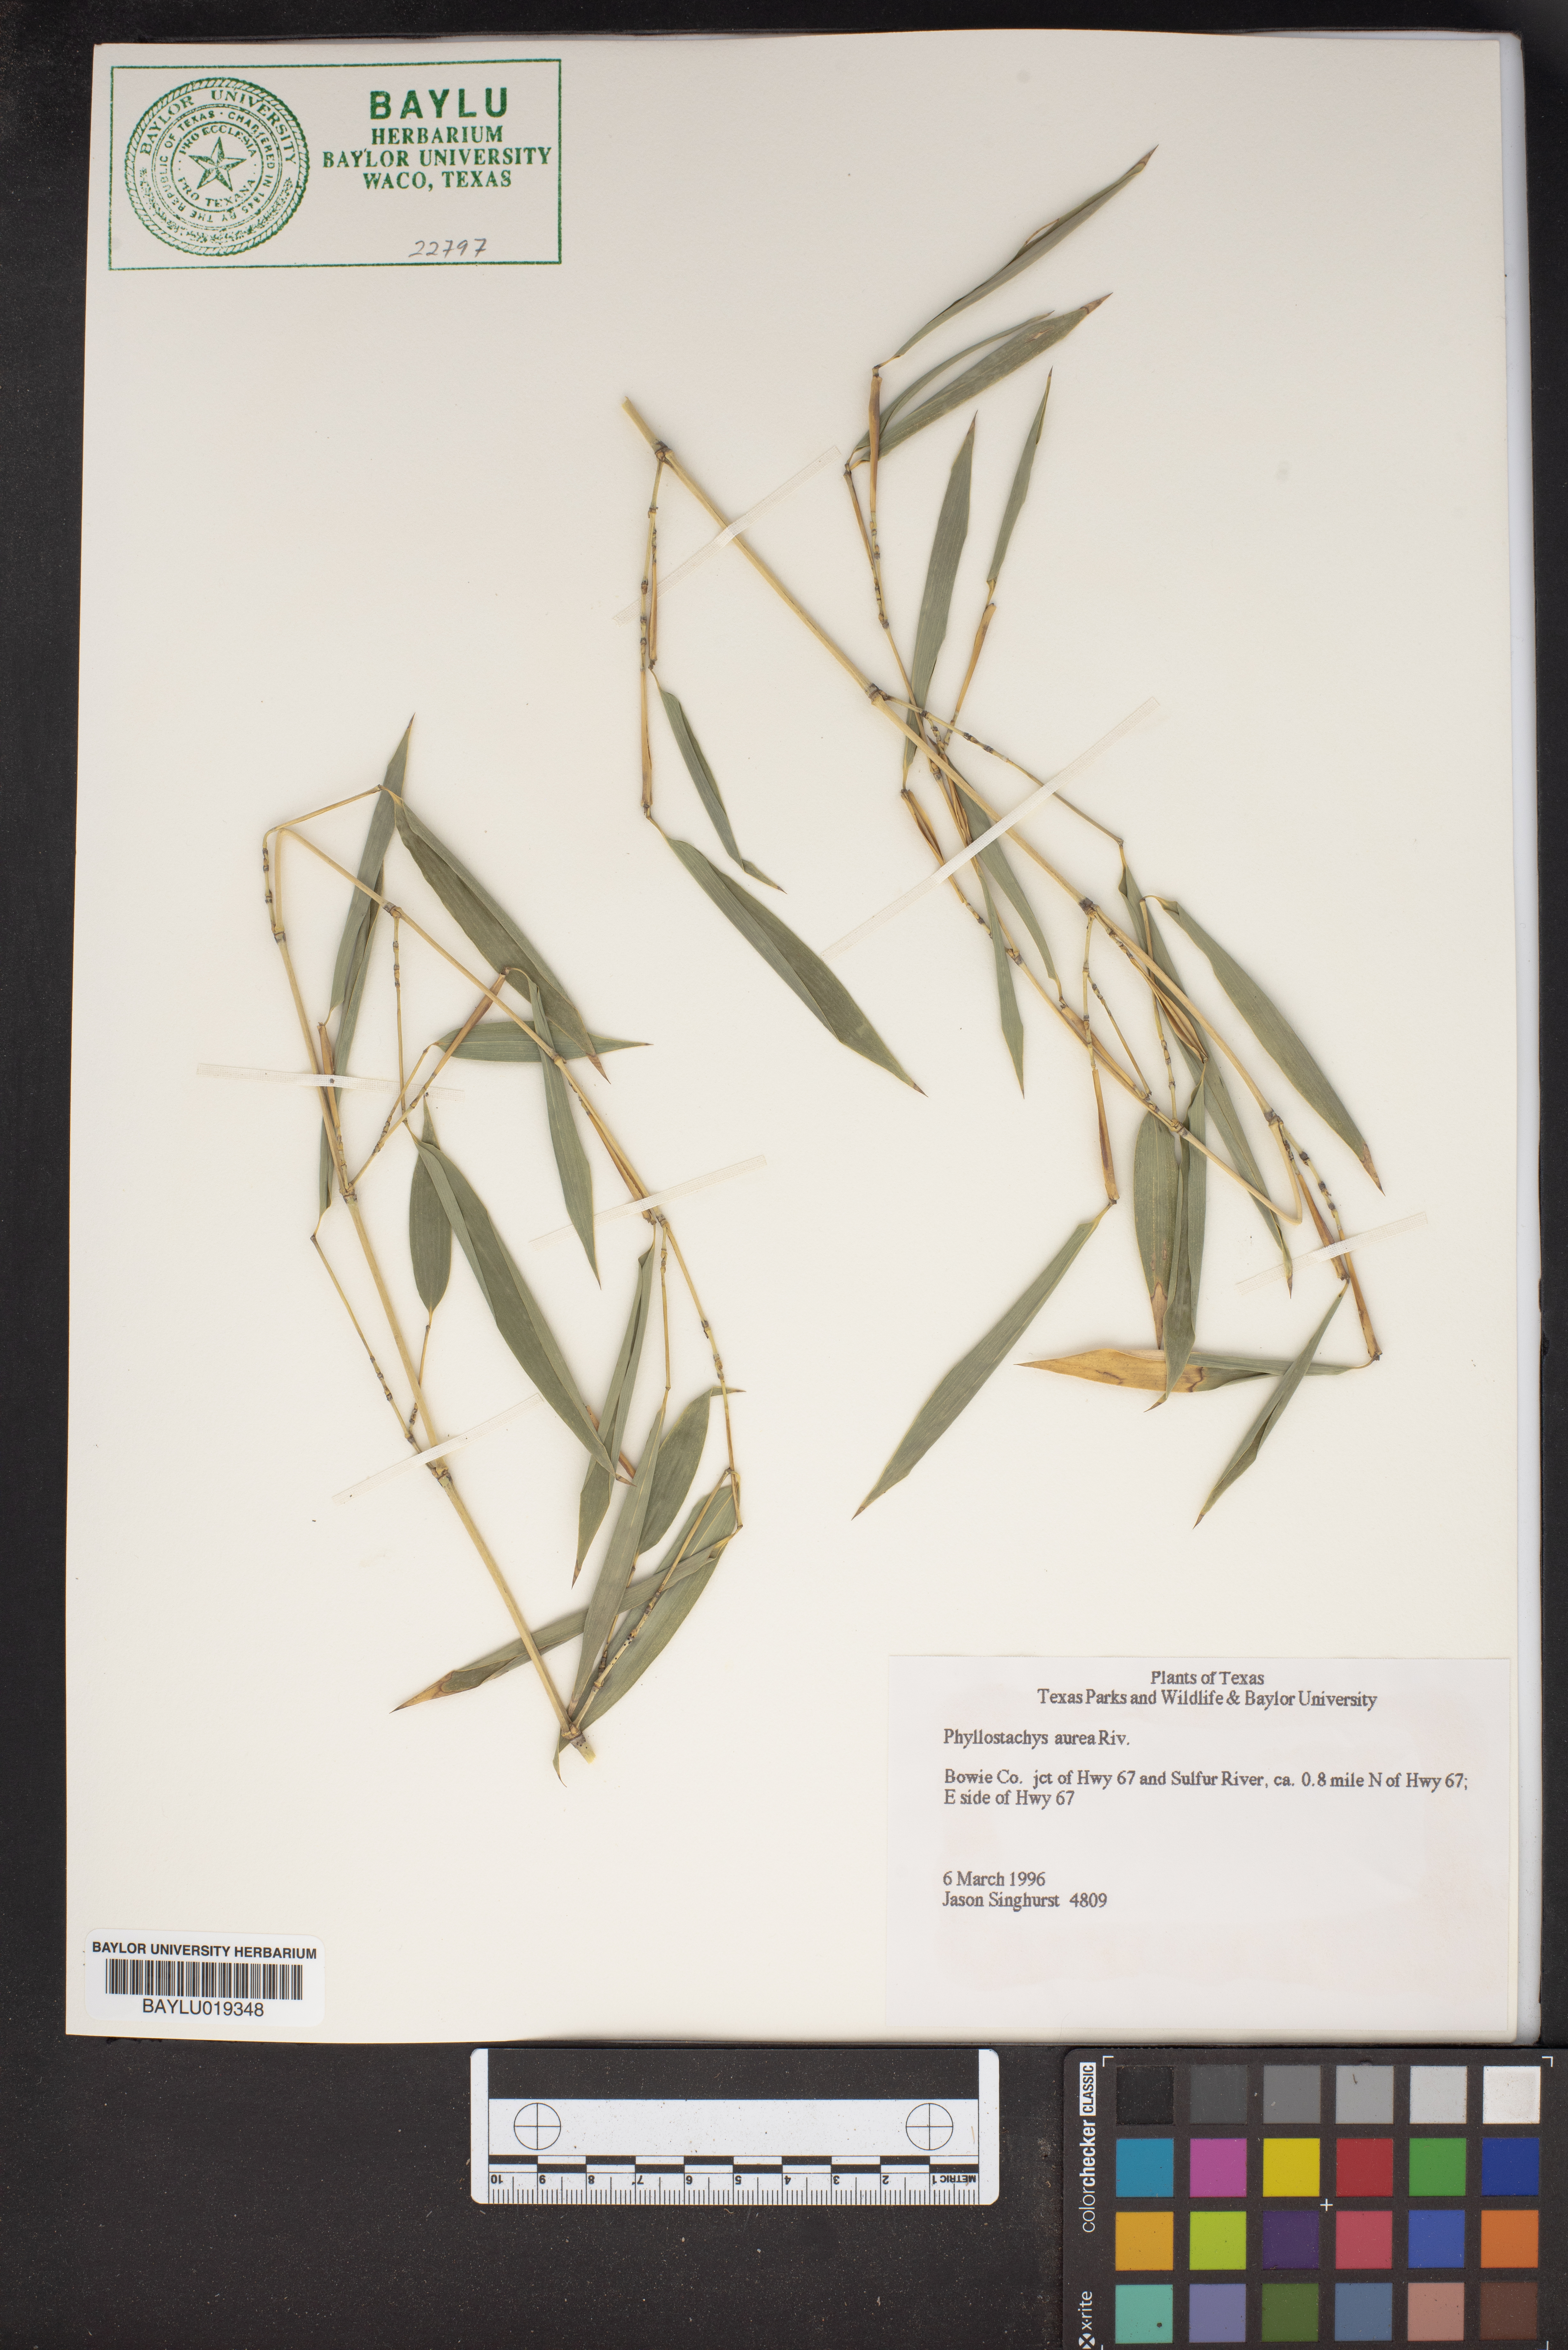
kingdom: Plantae
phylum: Tracheophyta
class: Liliopsida
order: Poales
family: Poaceae
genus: Phyllostachys
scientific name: Phyllostachys aurea
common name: Golden bamboo
